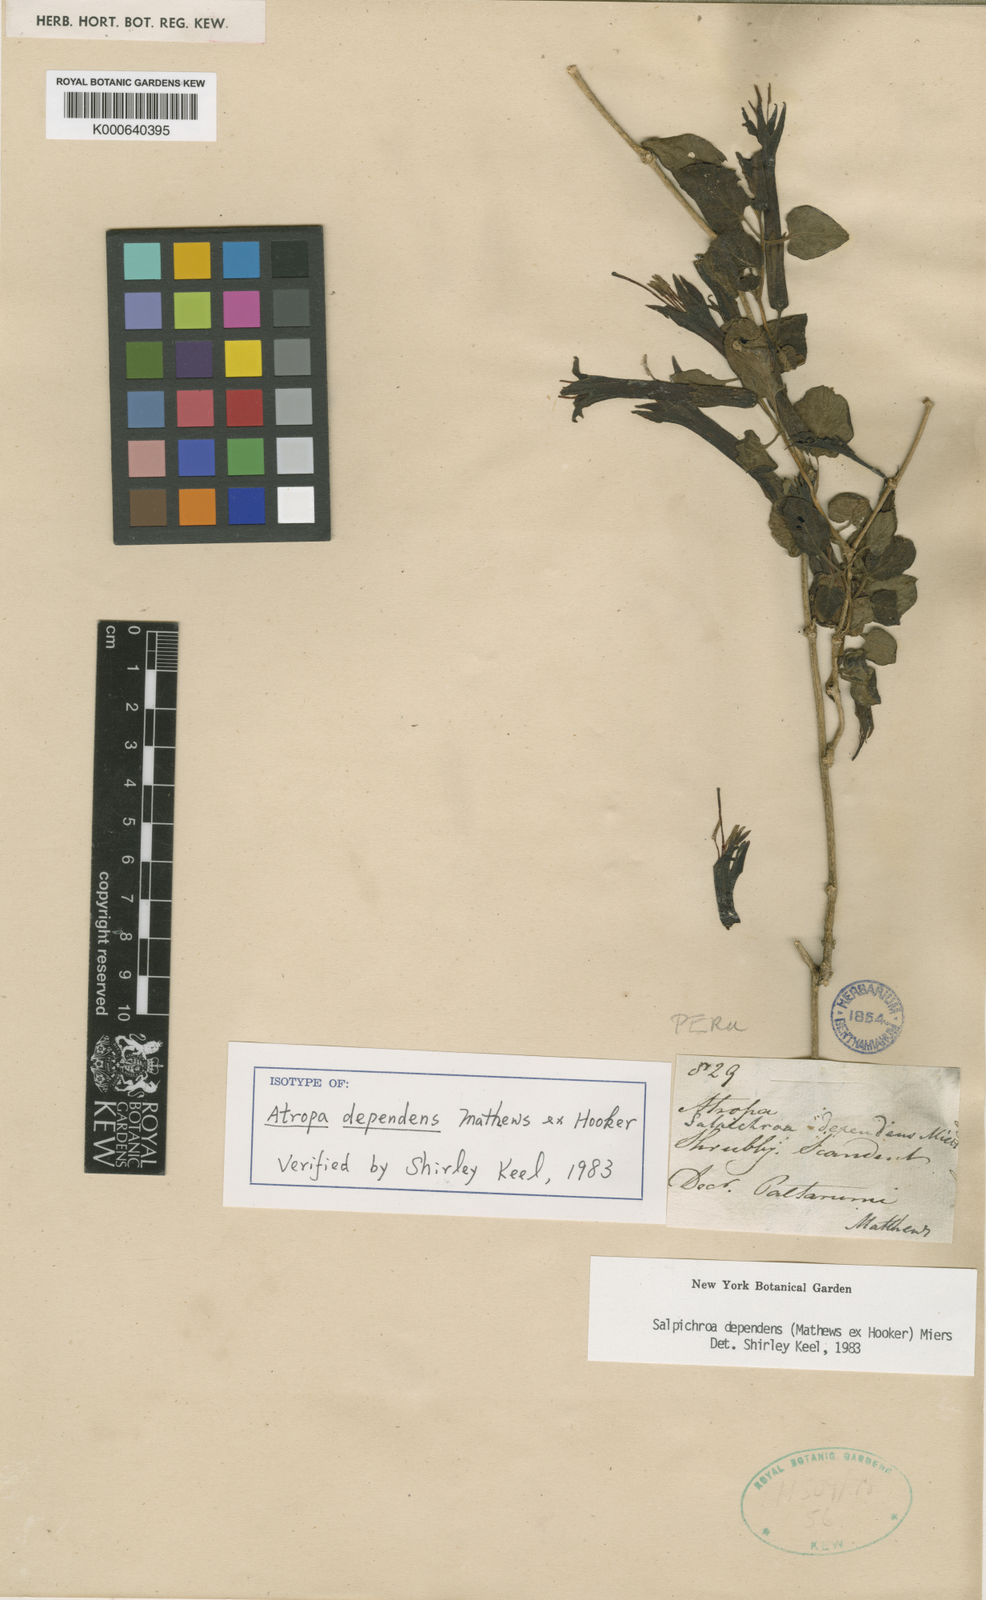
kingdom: Plantae
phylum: Tracheophyta
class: Magnoliopsida
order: Solanales
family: Solanaceae
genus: Salpichroa
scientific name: Salpichroa dependens
